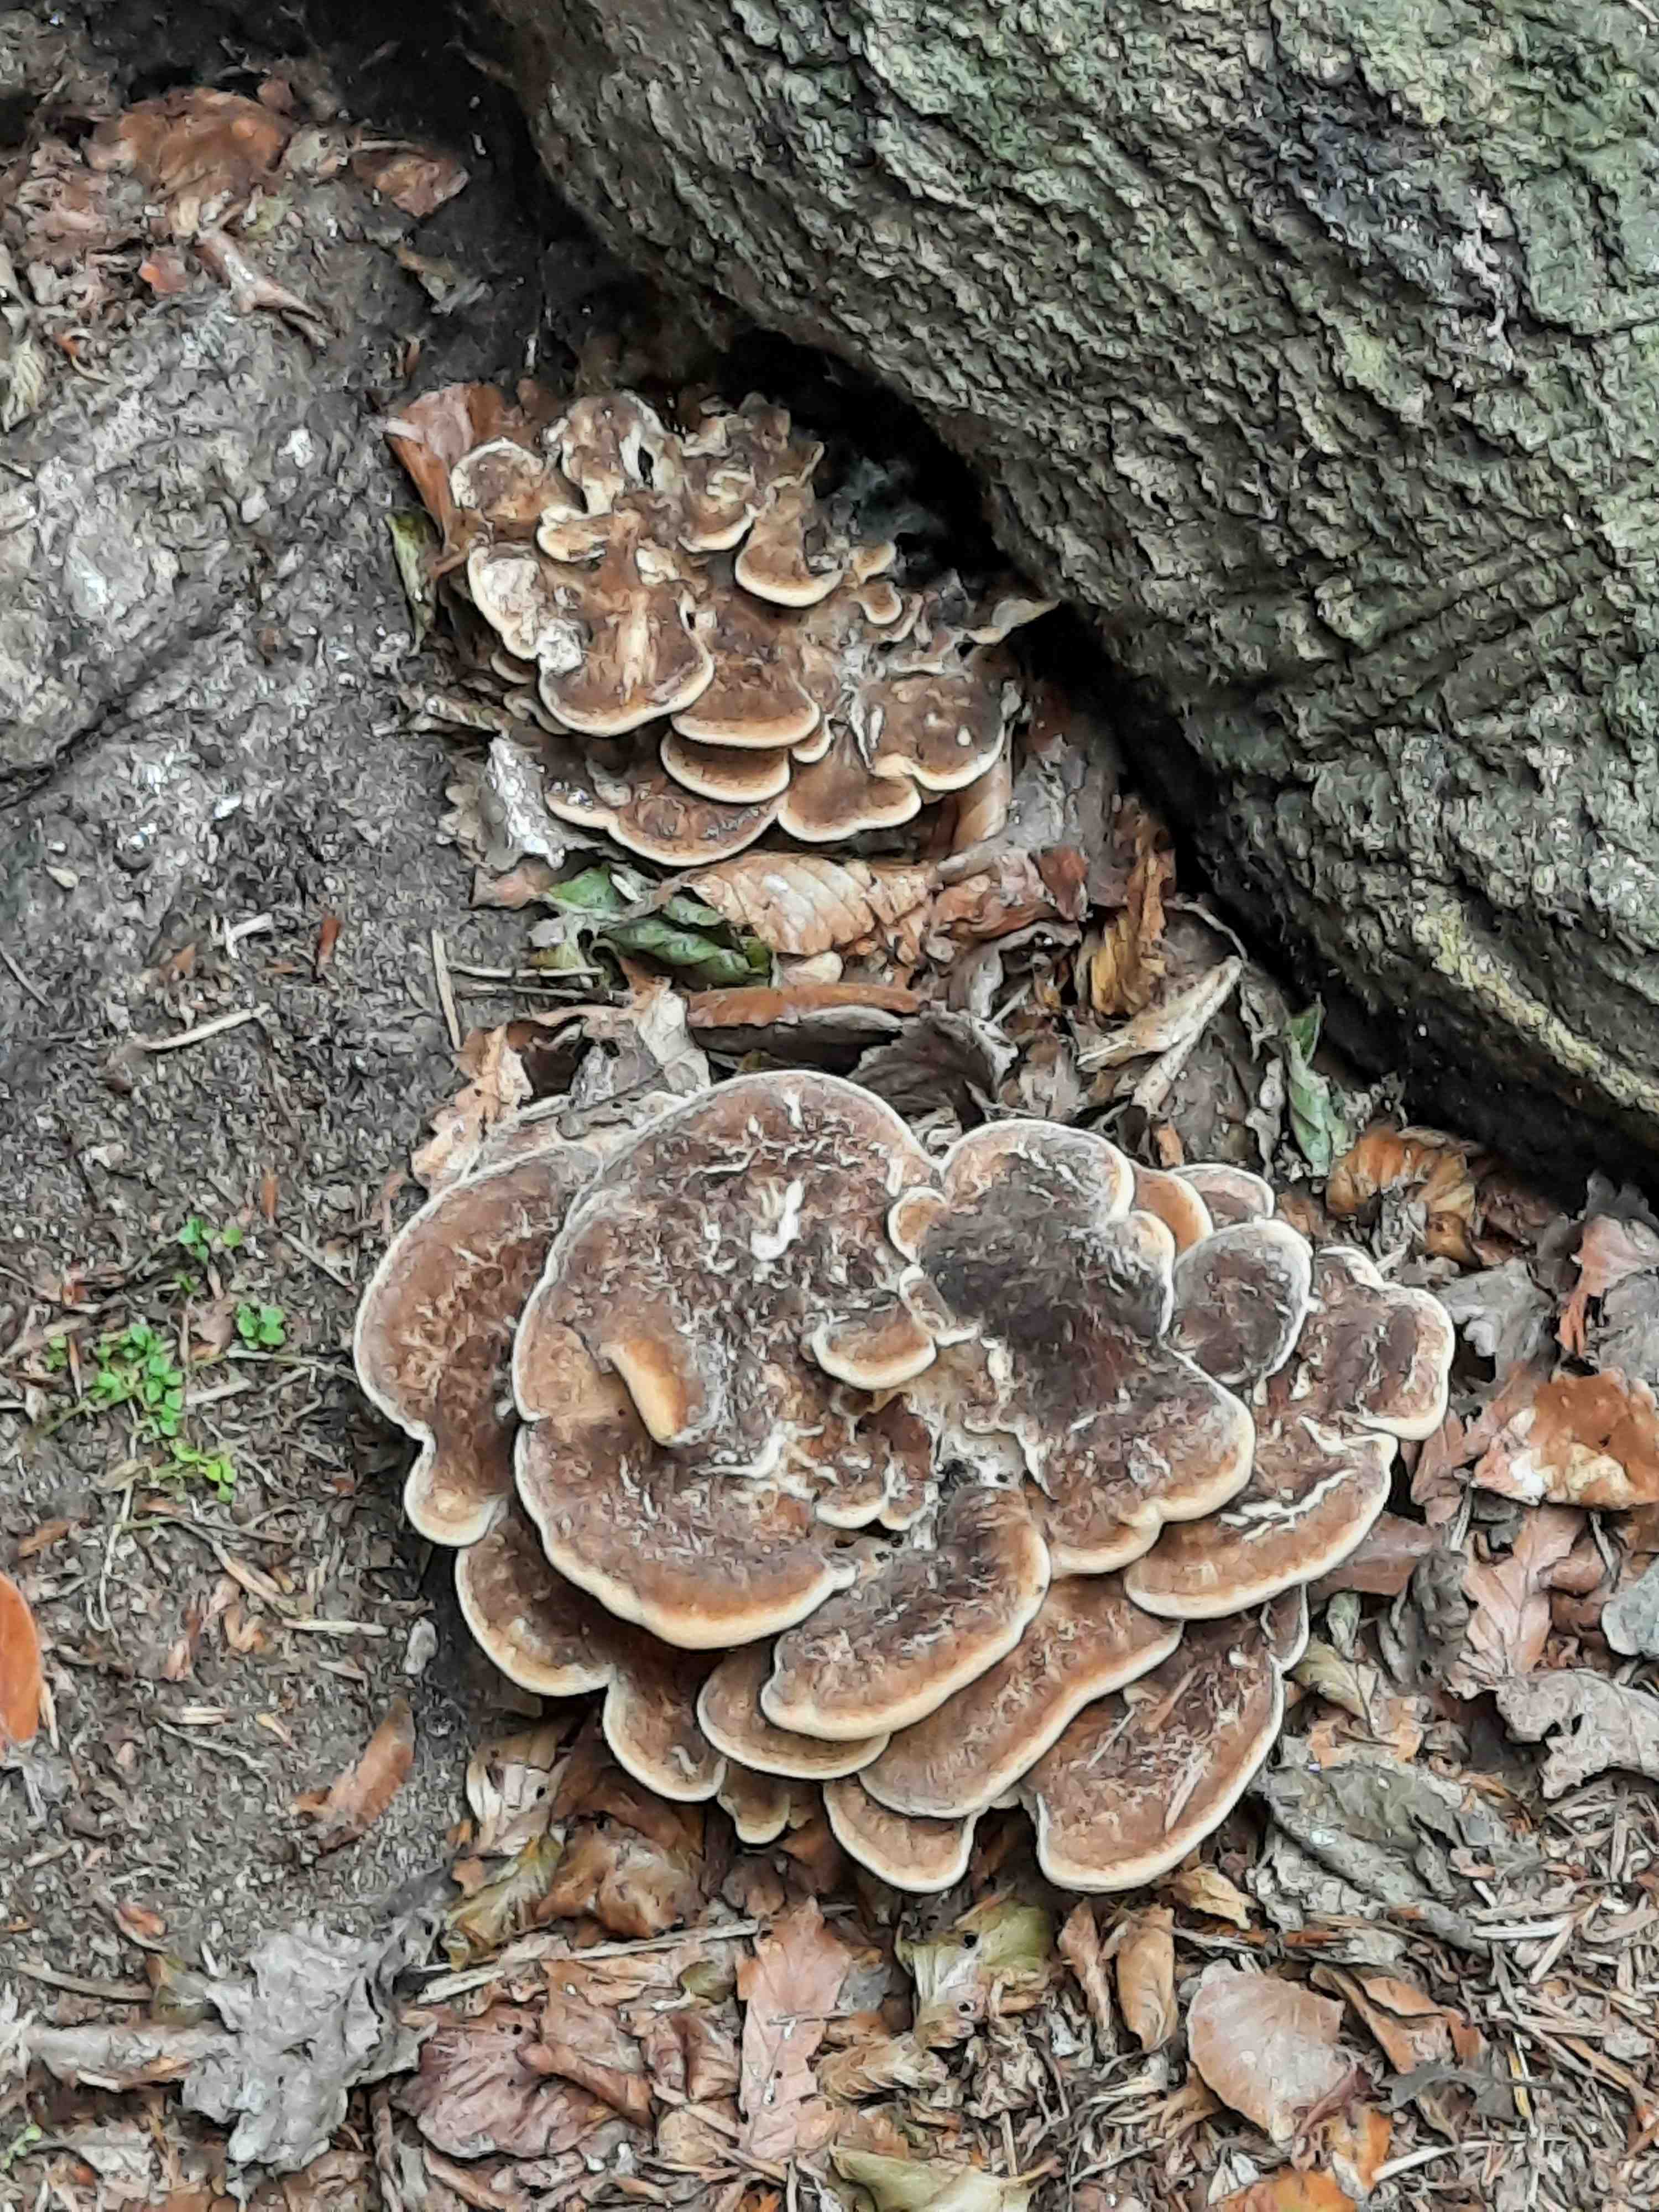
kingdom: Fungi
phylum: Basidiomycota
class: Agaricomycetes
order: Polyporales
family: Meripilaceae
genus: Meripilus
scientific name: Meripilus giganteus
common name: kæmpeporesvamp
